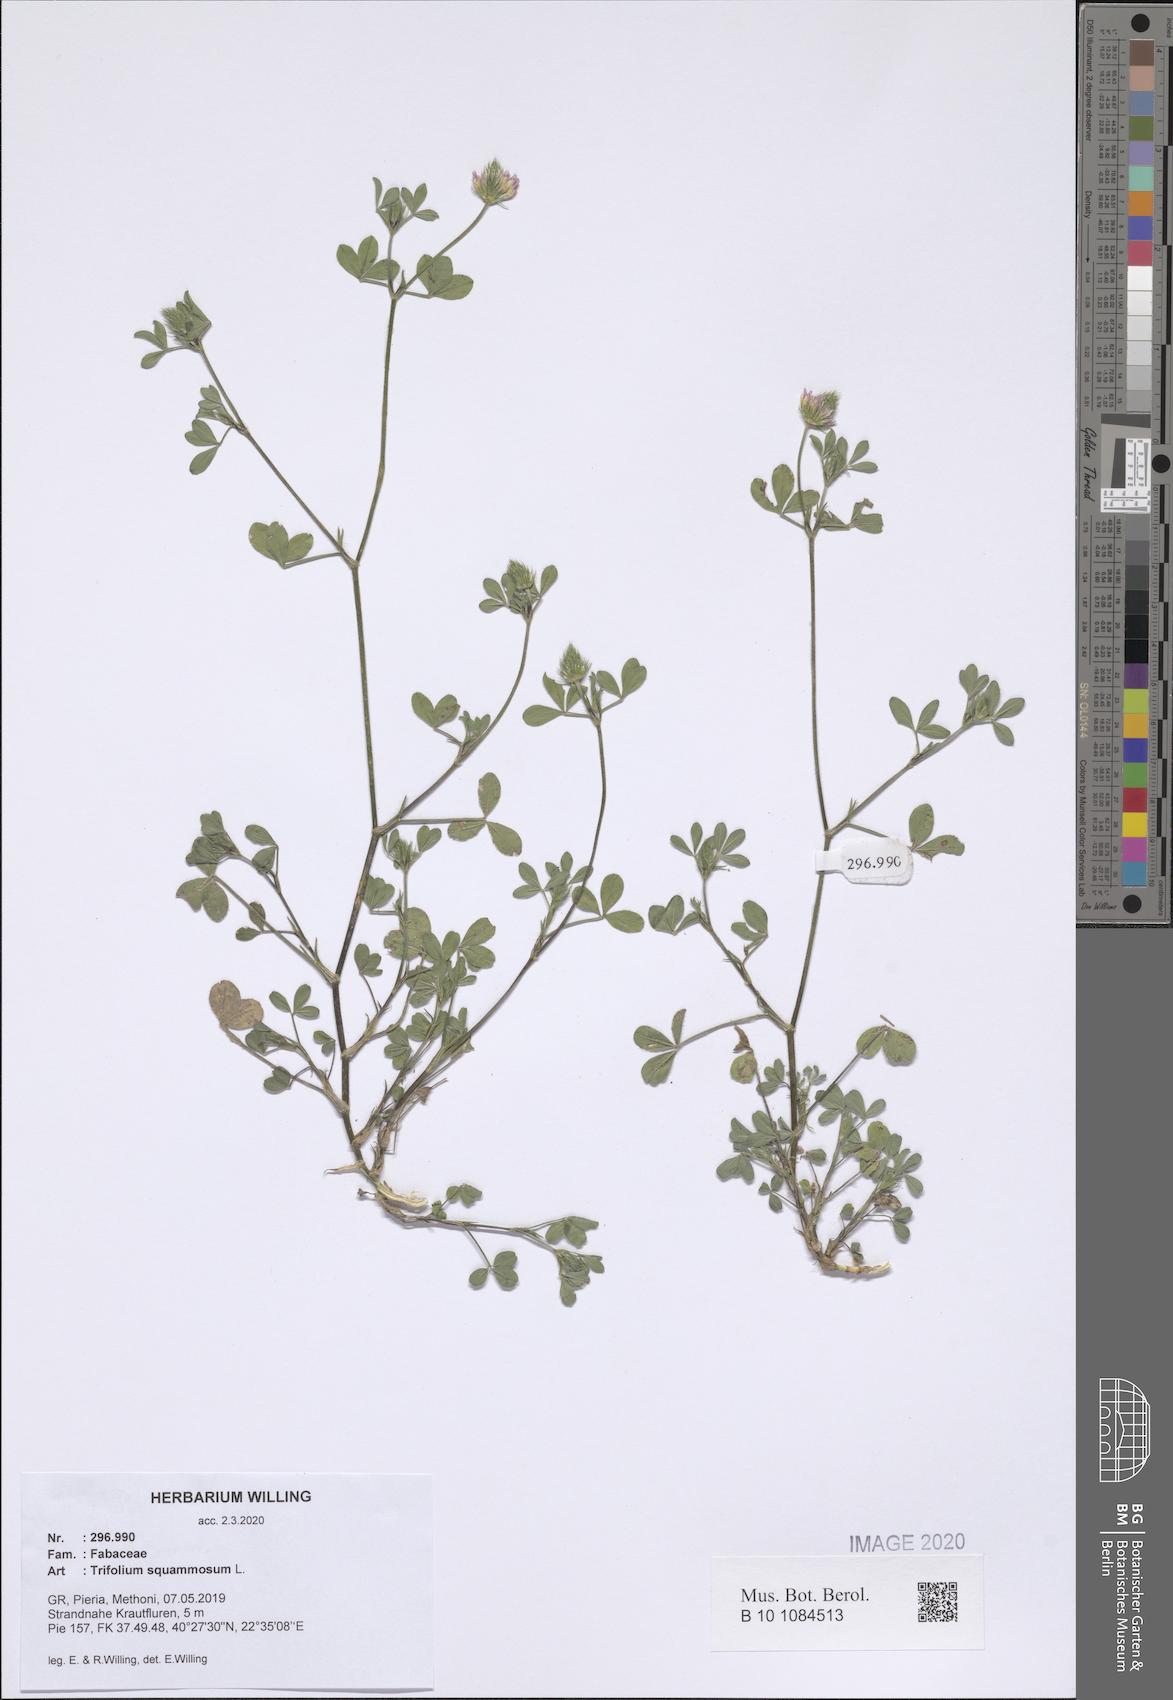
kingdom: Plantae
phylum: Tracheophyta
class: Magnoliopsida
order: Fabales
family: Fabaceae
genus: Trifolium
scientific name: Trifolium squamosum
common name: Sea clover
